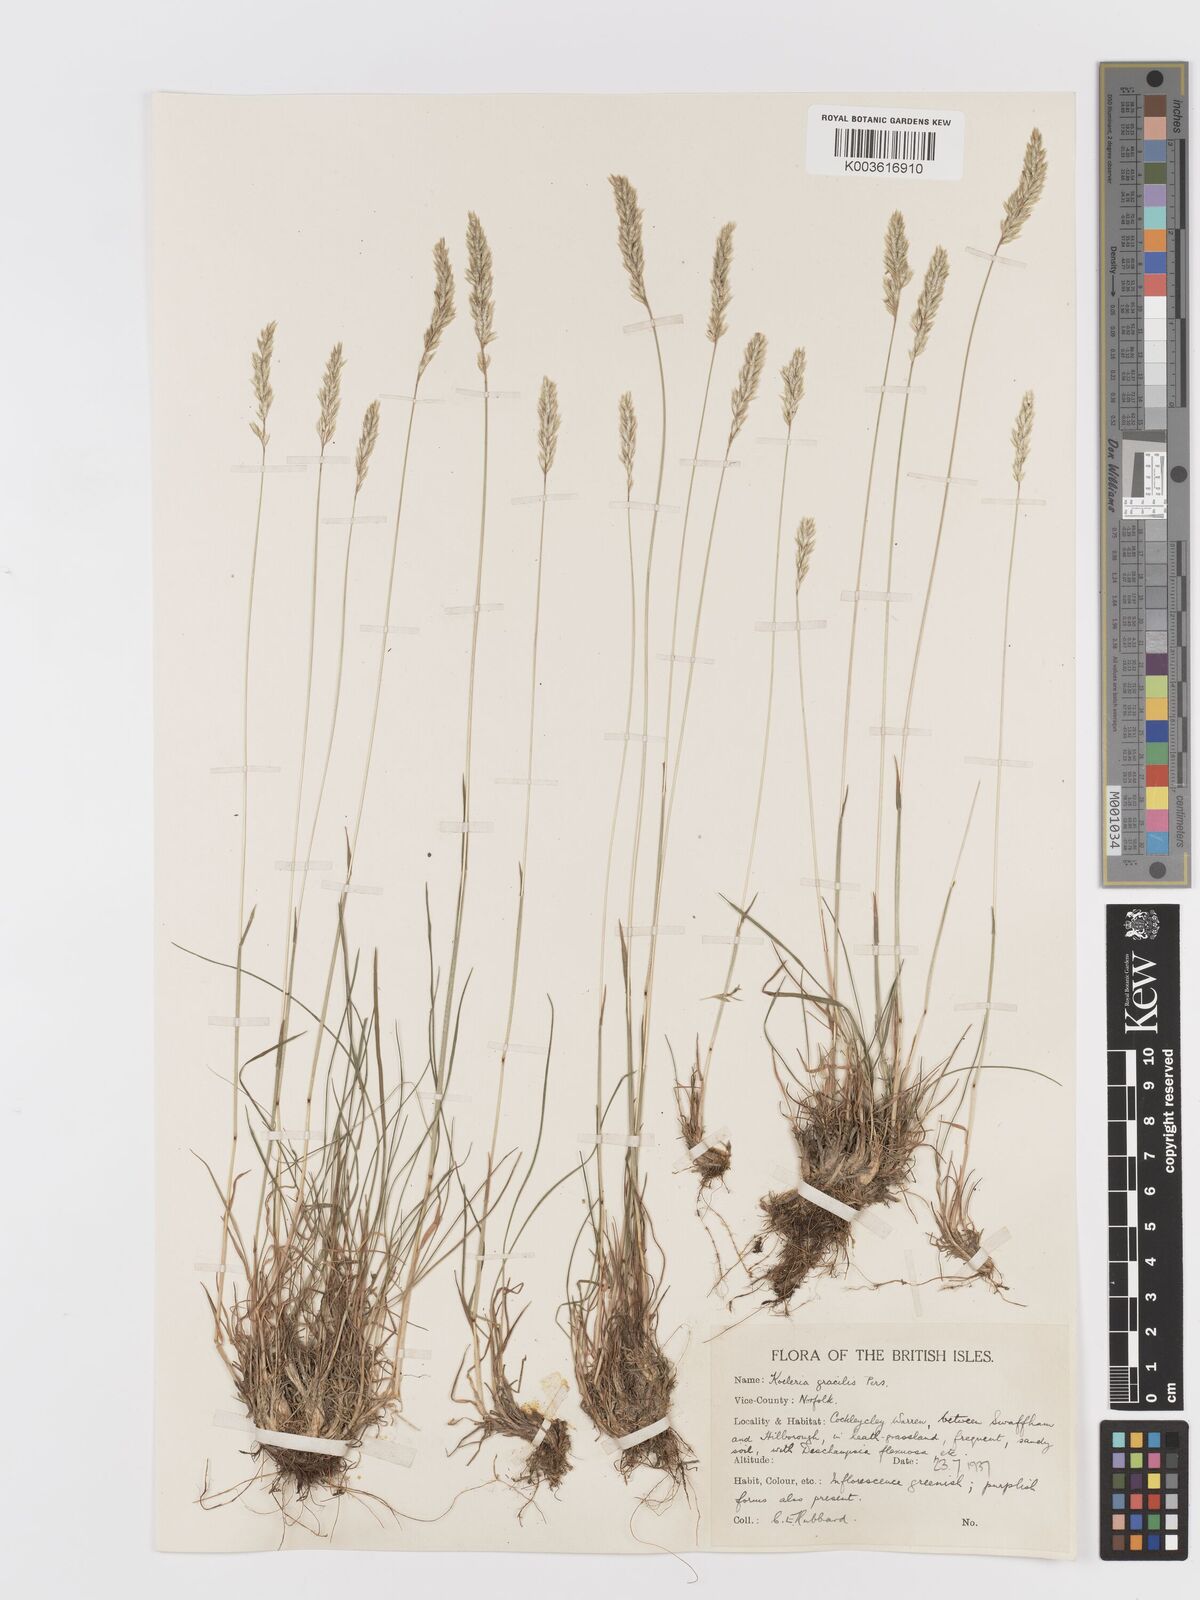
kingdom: Plantae
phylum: Tracheophyta
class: Liliopsida
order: Poales
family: Poaceae
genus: Koeleria
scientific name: Koeleria macrantha
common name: Crested hair-grass
